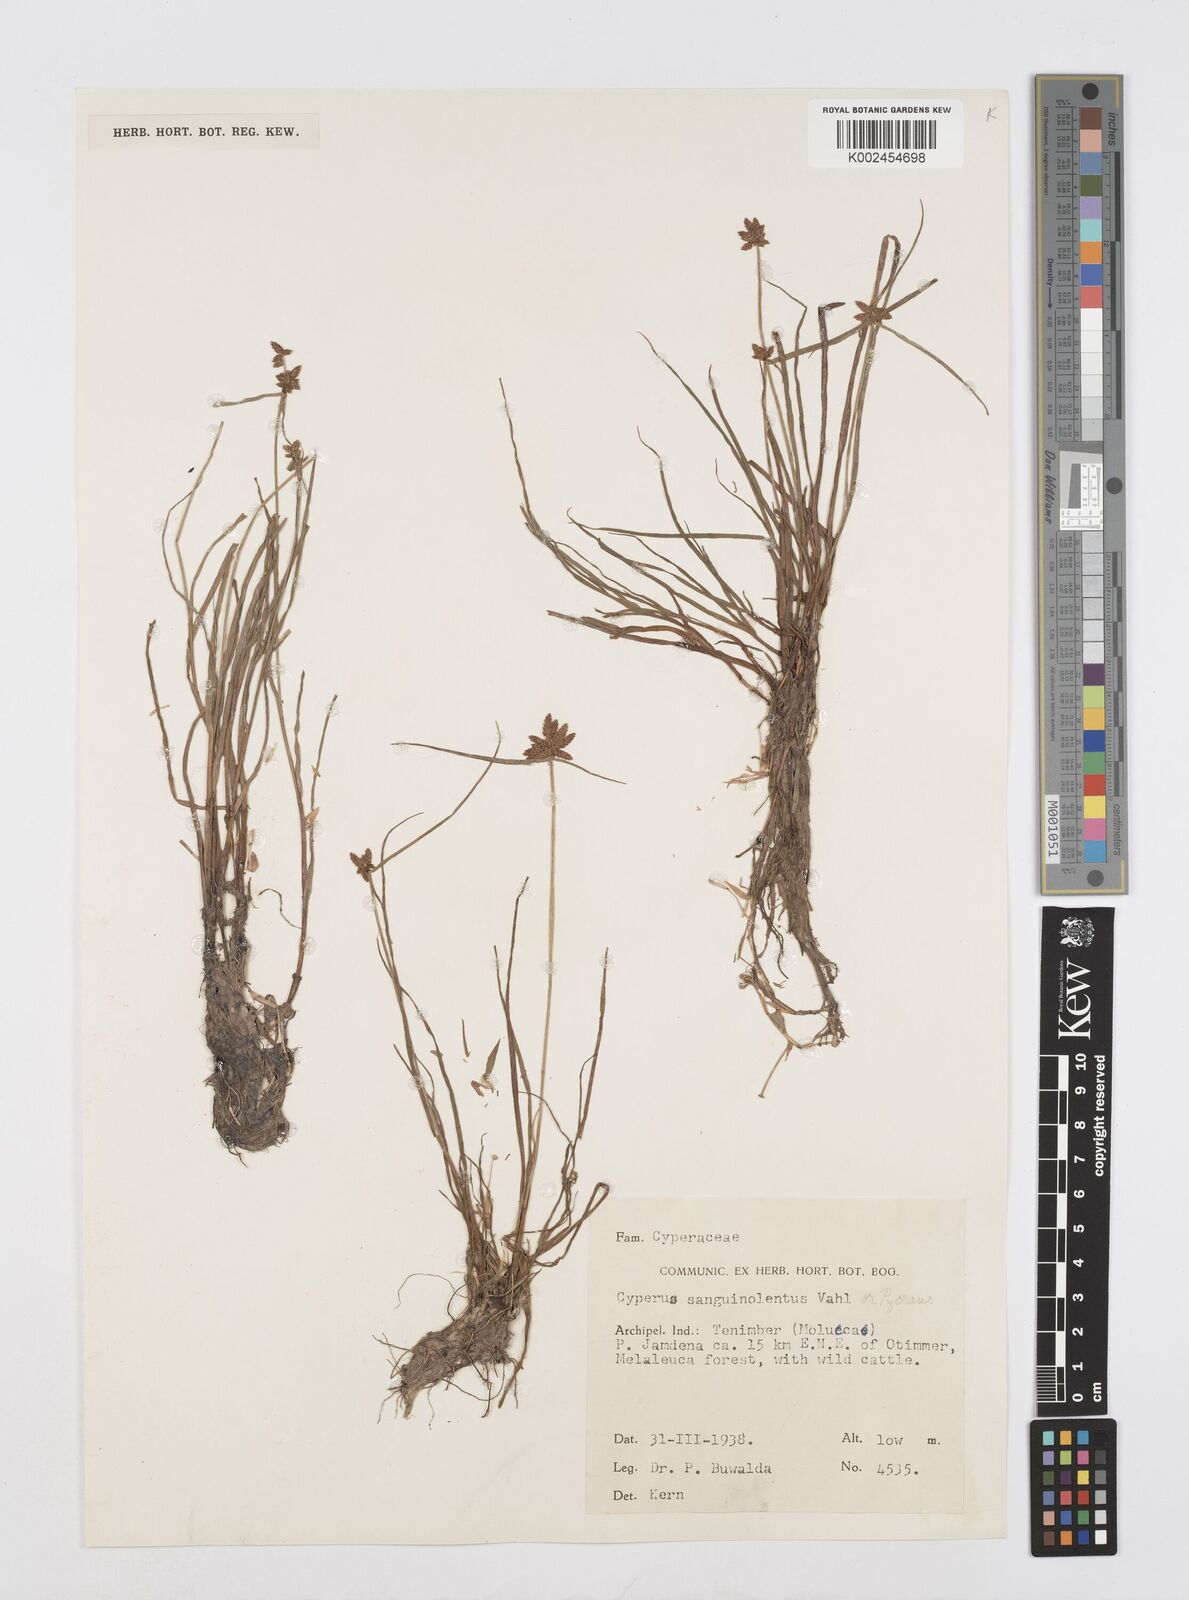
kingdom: Plantae
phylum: Tracheophyta
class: Liliopsida
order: Poales
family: Cyperaceae
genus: Cyperus
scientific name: Cyperus sanguinolentus
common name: Purpleglume flatsedge
